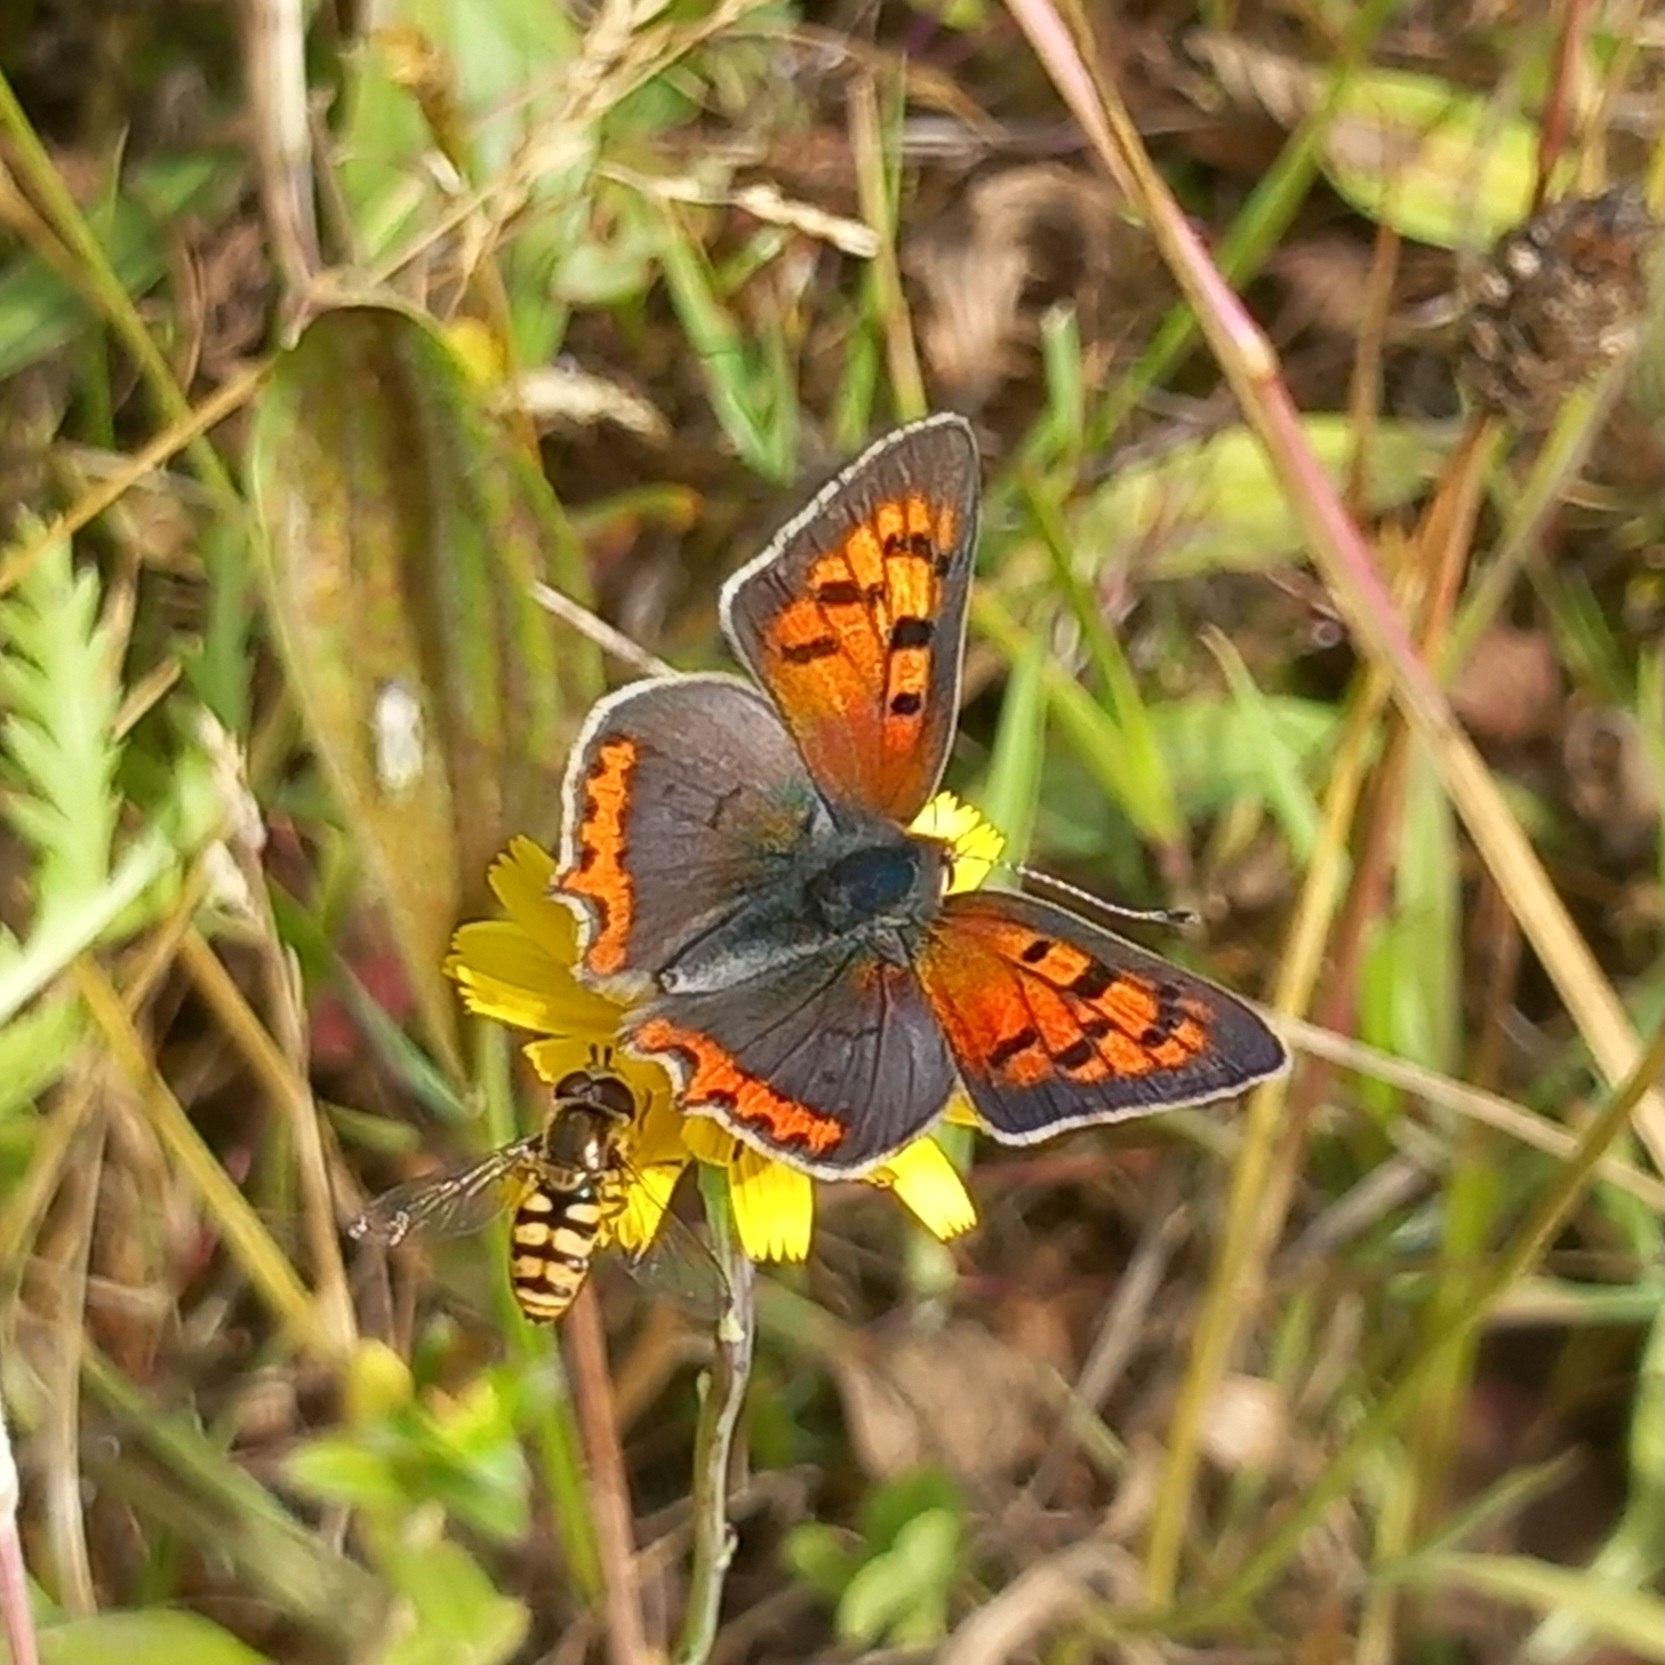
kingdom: Animalia
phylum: Arthropoda
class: Insecta
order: Lepidoptera
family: Lycaenidae
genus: Lycaena
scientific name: Lycaena phlaeas
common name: Lille ildfugl
